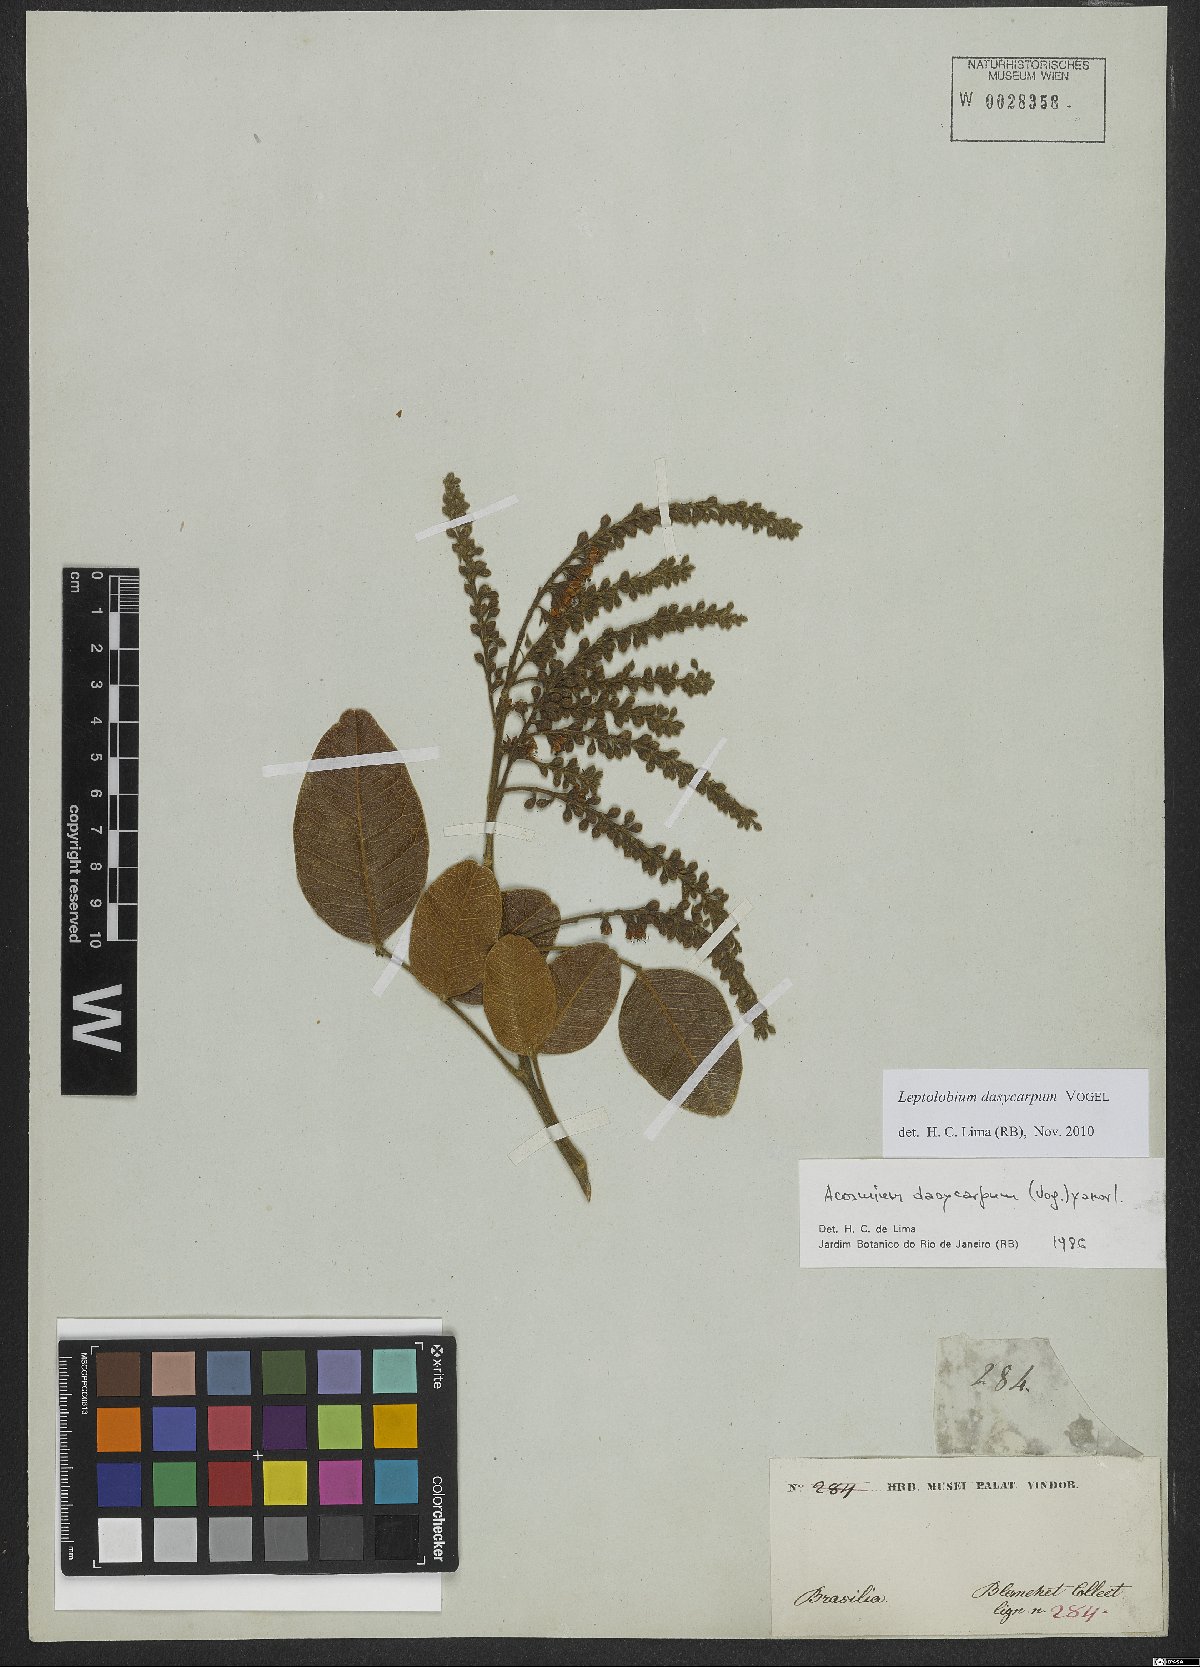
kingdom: Plantae
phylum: Tracheophyta
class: Magnoliopsida
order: Fabales
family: Fabaceae
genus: Leptolobium
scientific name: Leptolobium dasycarpum
